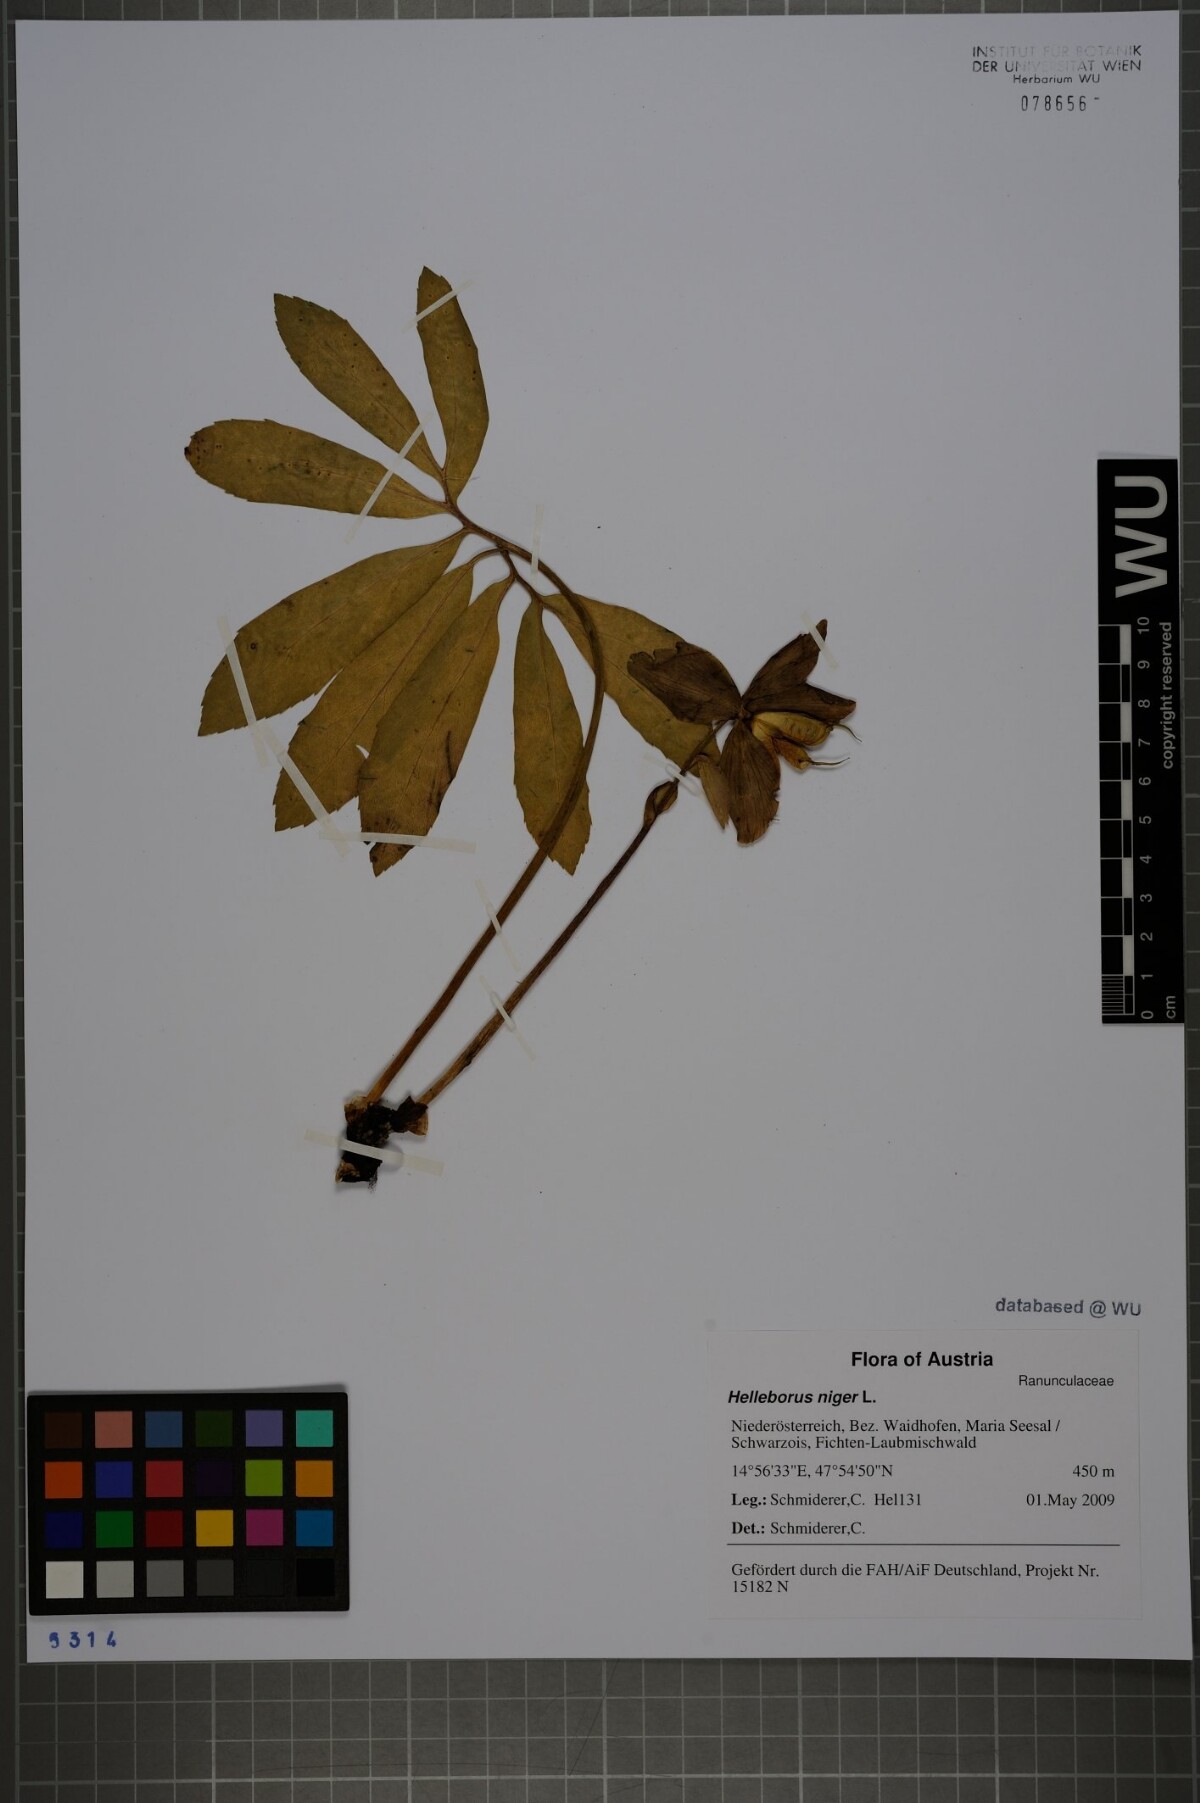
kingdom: Plantae
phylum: Tracheophyta
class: Magnoliopsida
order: Ranunculales
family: Ranunculaceae
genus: Helleborus
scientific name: Helleborus niger
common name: Black hellebore
